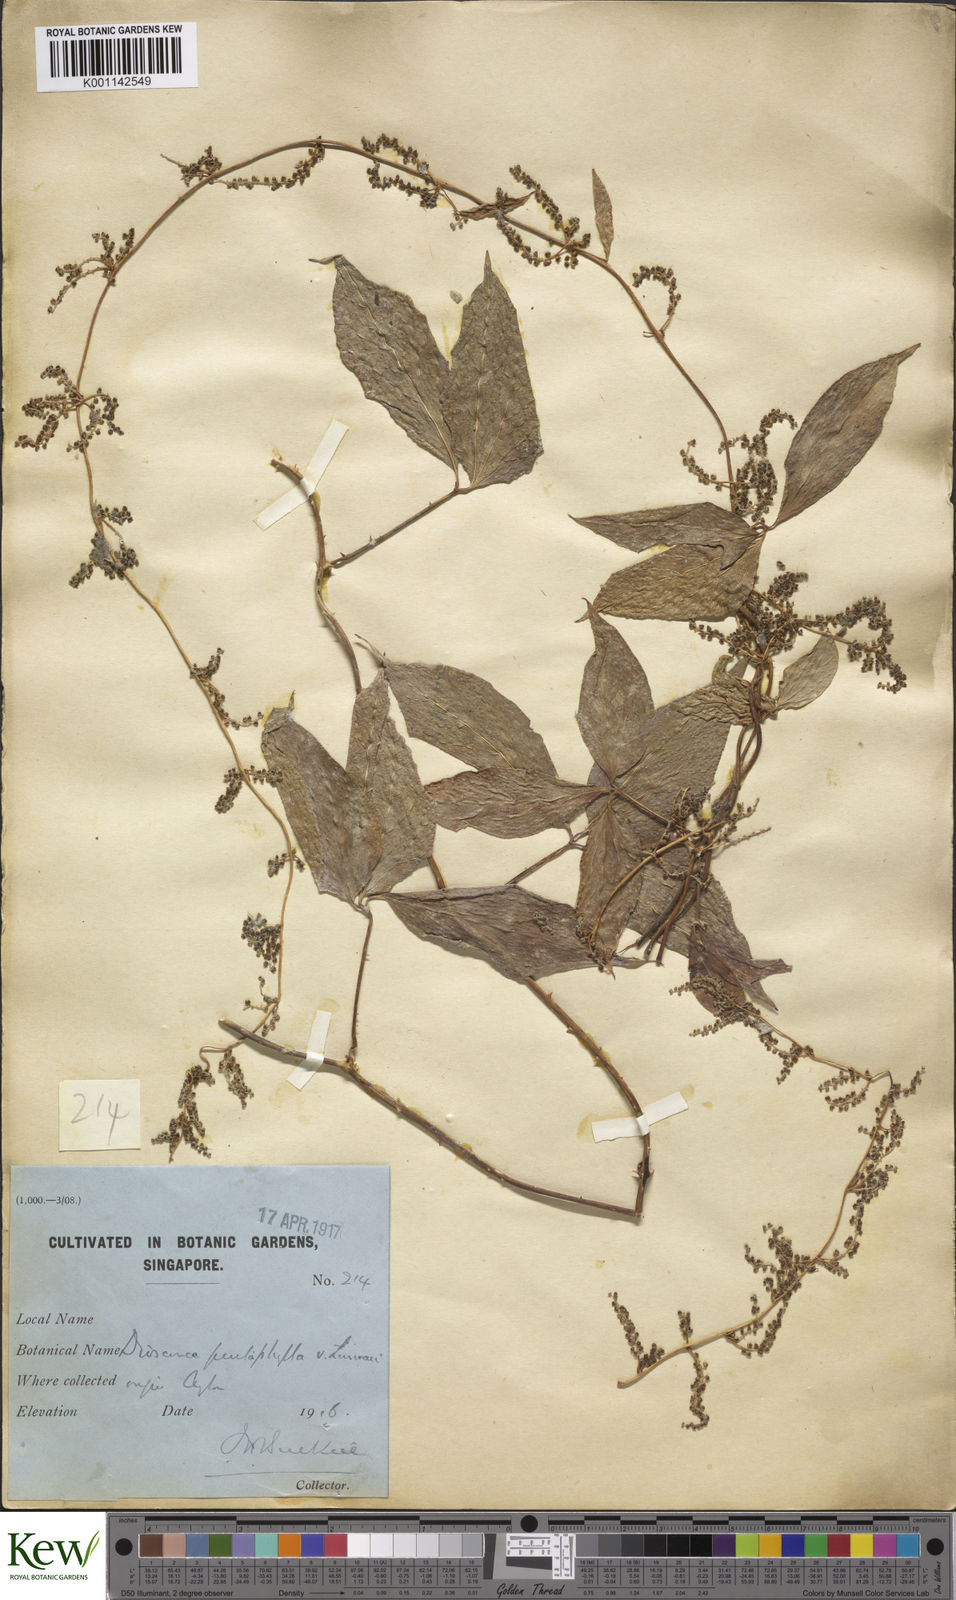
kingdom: Plantae
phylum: Tracheophyta
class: Liliopsida
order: Dioscoreales
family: Dioscoreaceae
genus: Dioscorea
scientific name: Dioscorea pentaphylla
